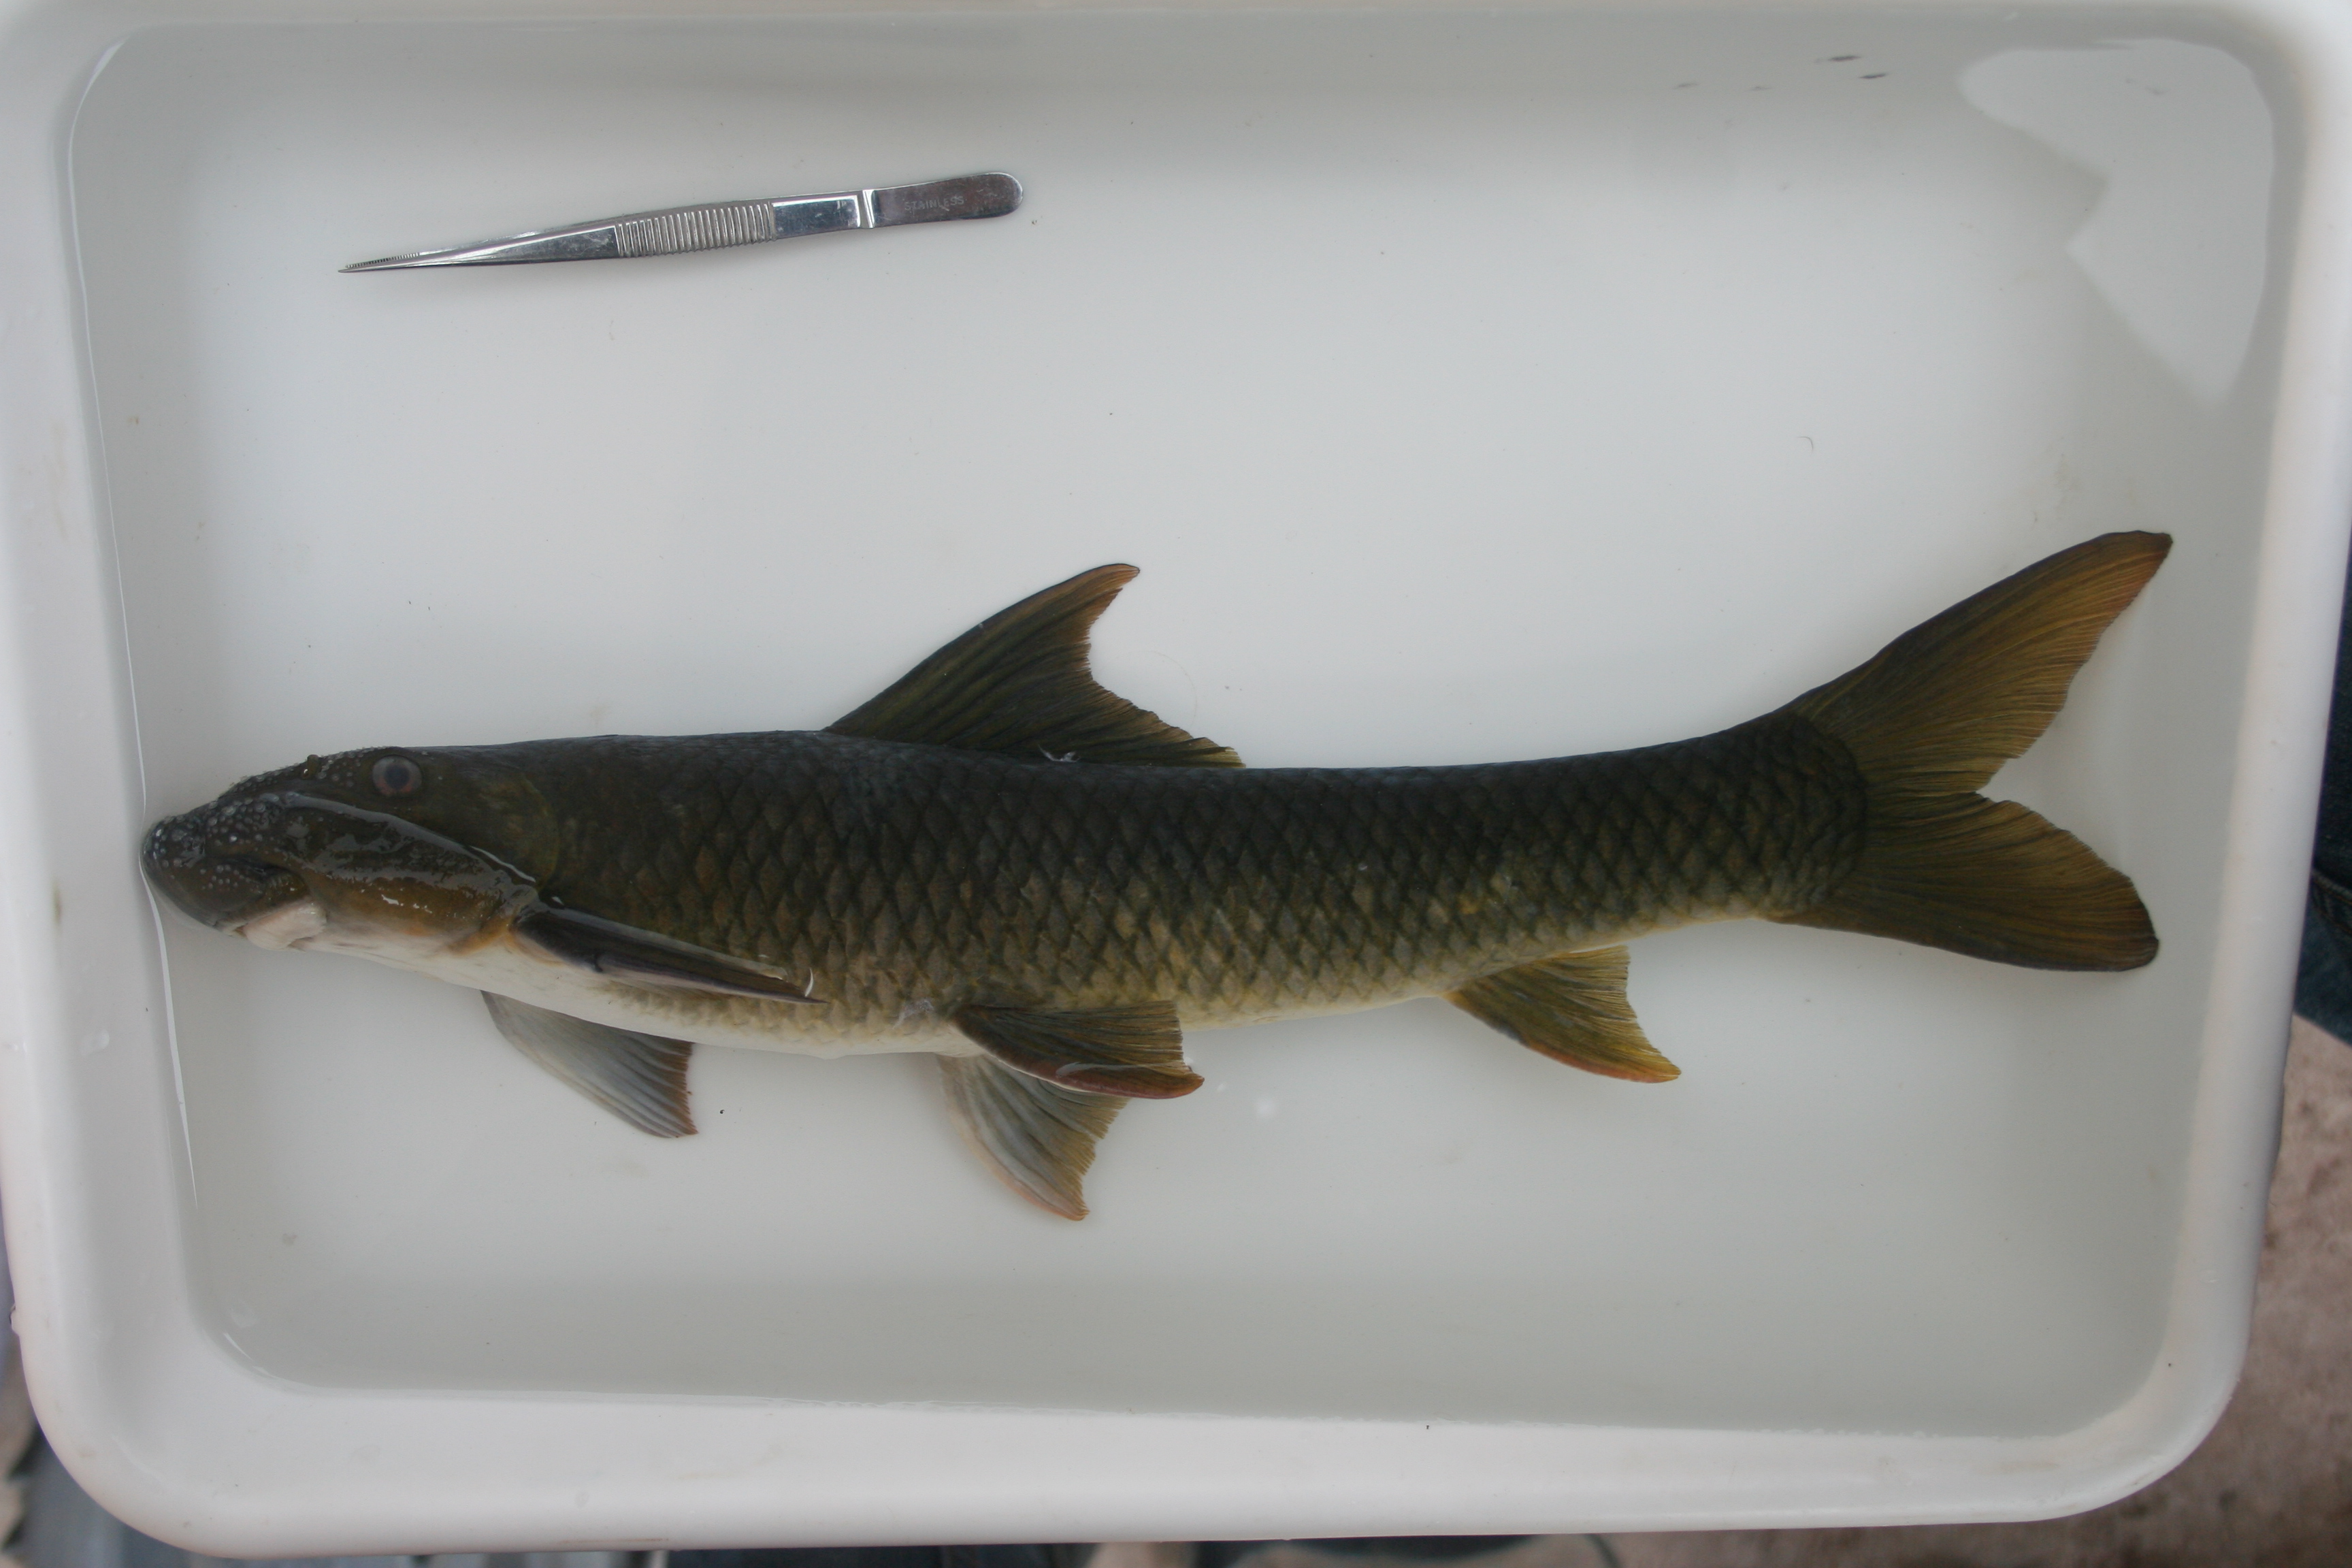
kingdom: Animalia
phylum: Chordata
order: Cypriniformes
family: Cyprinidae
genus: Labeo
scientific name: Labeo
